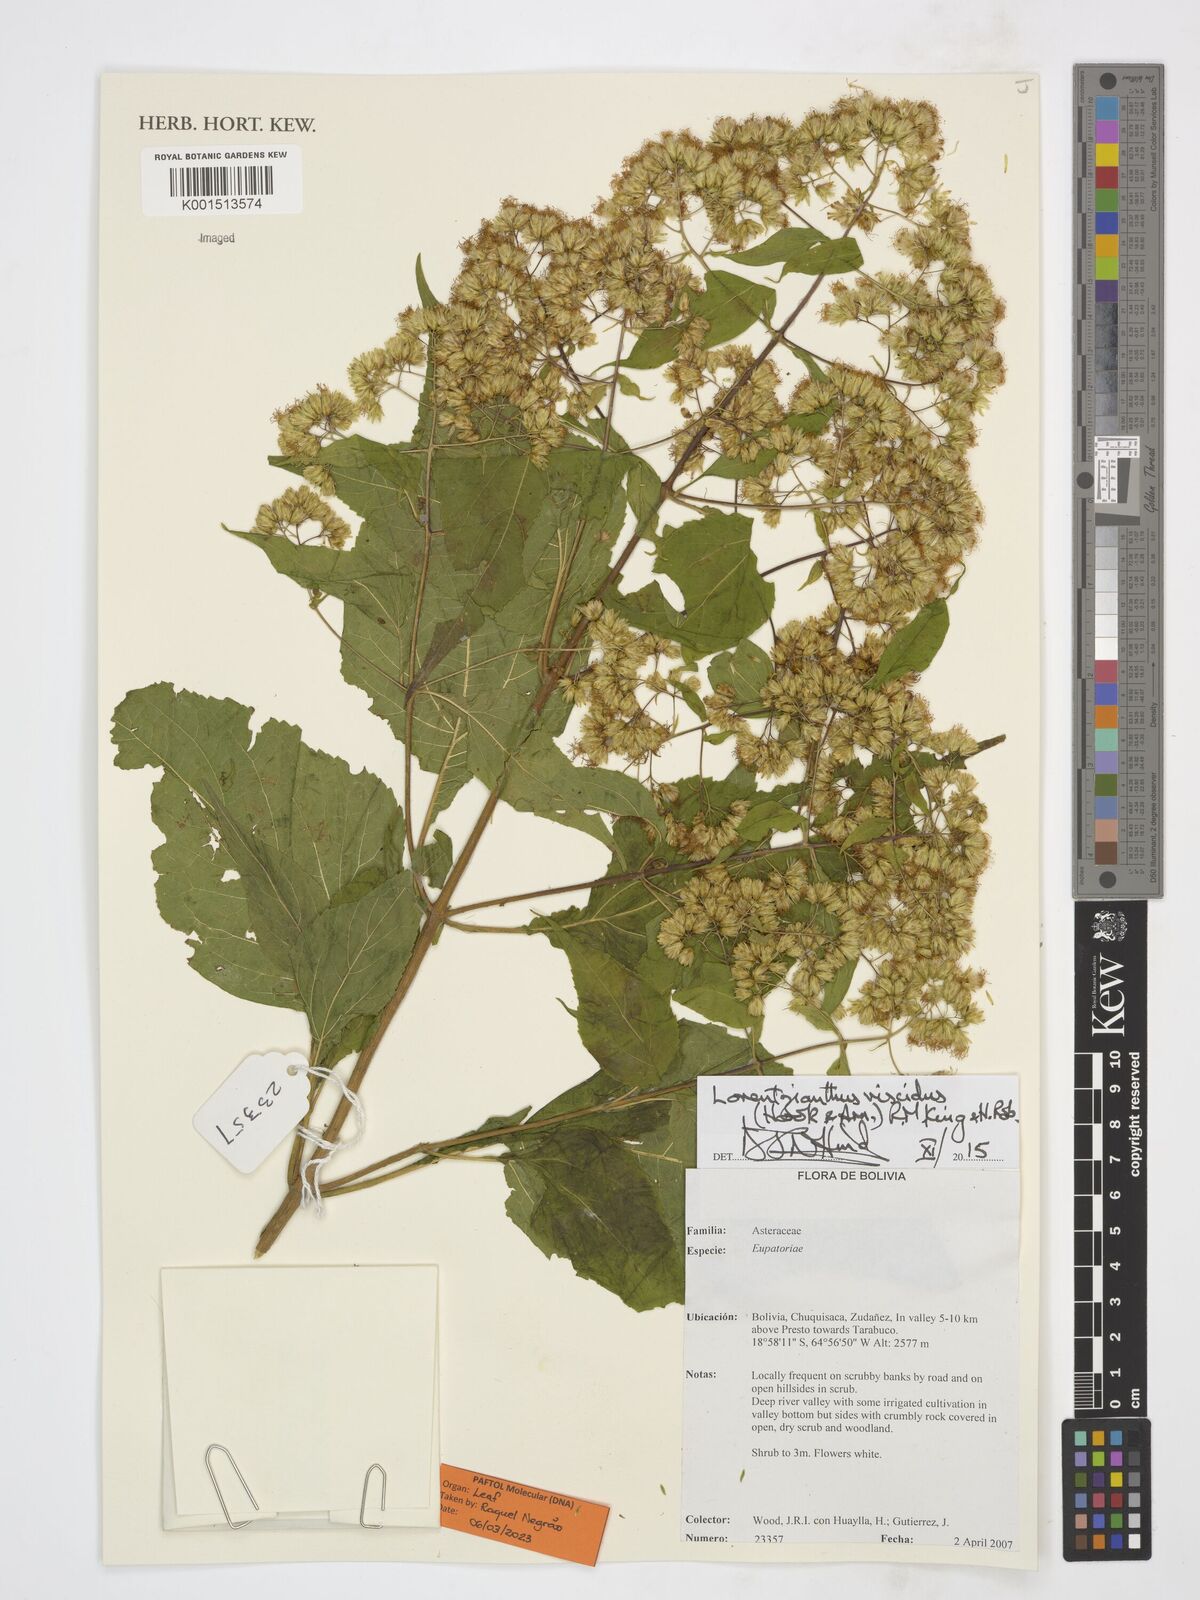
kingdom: Plantae
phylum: Tracheophyta
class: Magnoliopsida
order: Asterales
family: Asteraceae
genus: Lorentzianthus
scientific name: Lorentzianthus viscidus
